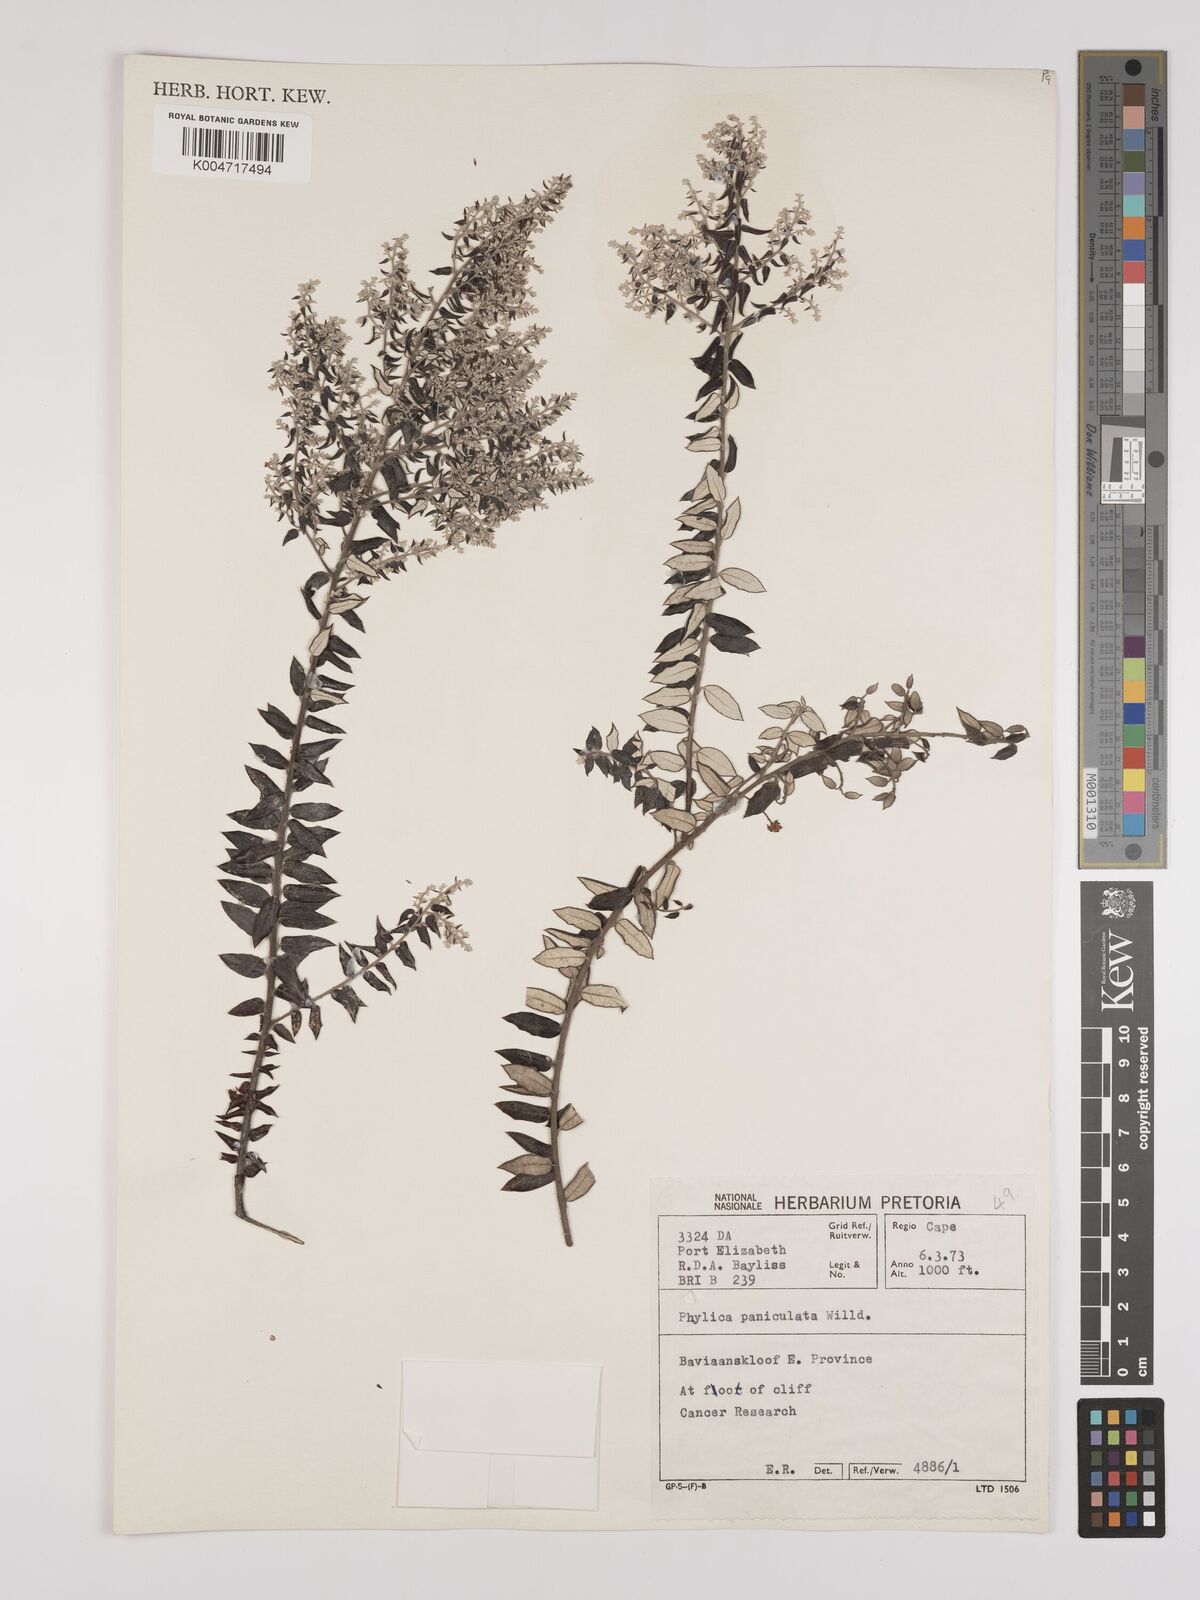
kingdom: Plantae
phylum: Tracheophyta
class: Magnoliopsida
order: Rosales
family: Rhamnaceae
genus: Phylica
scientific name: Phylica paniculata
